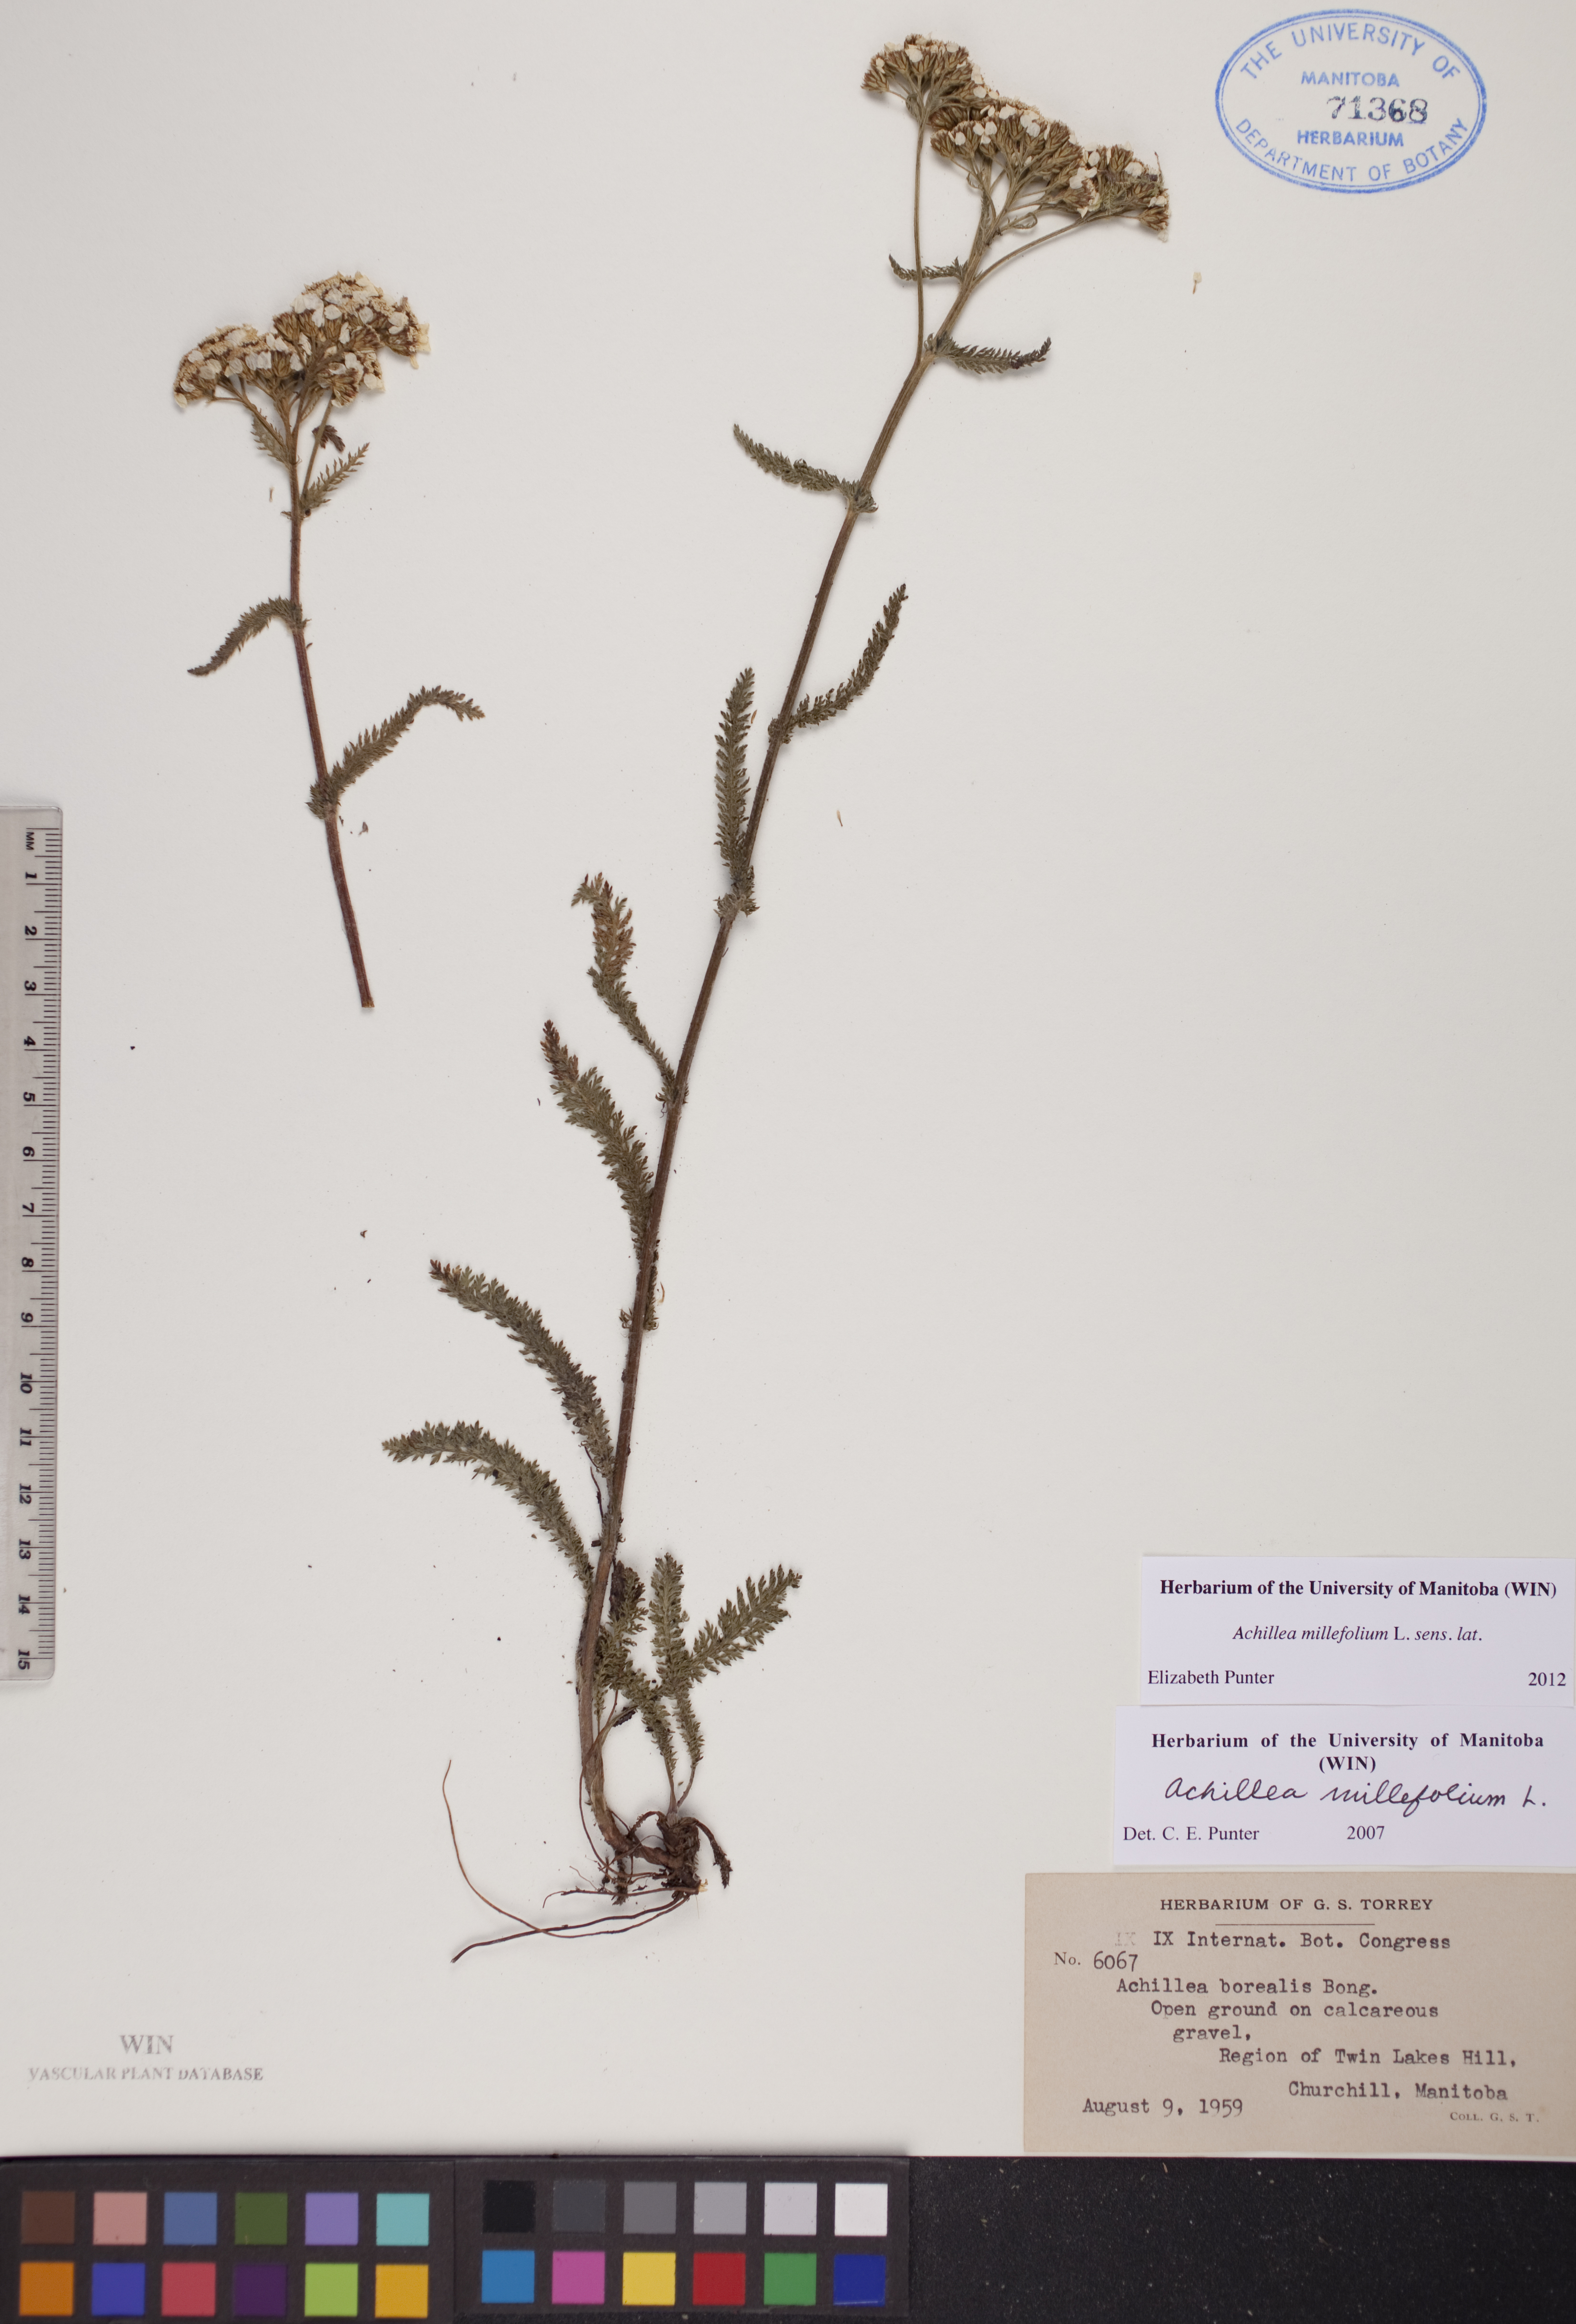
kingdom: Plantae
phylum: Tracheophyta
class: Magnoliopsida
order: Asterales
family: Asteraceae
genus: Achillea
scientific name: Achillea millefolium
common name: Yarrow
